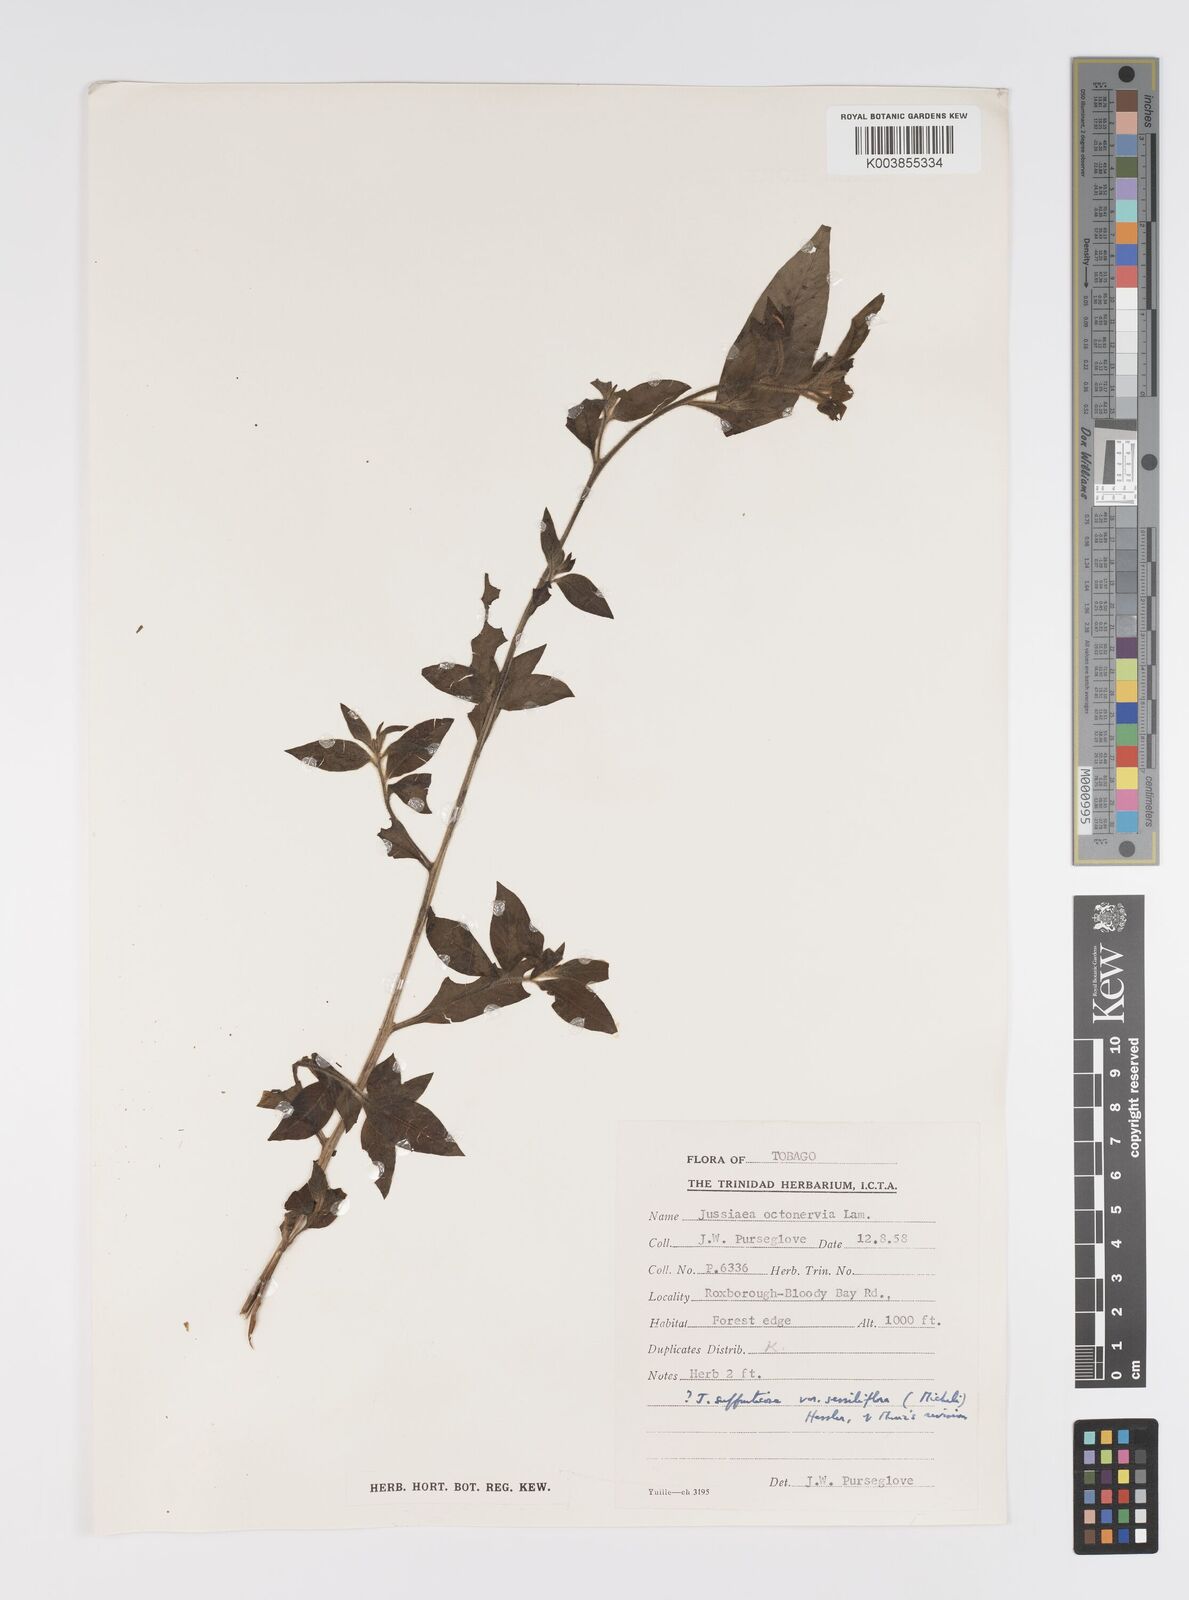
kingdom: Plantae
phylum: Tracheophyta
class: Magnoliopsida
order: Myrtales
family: Onagraceae
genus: Ludwigia
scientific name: Ludwigia
